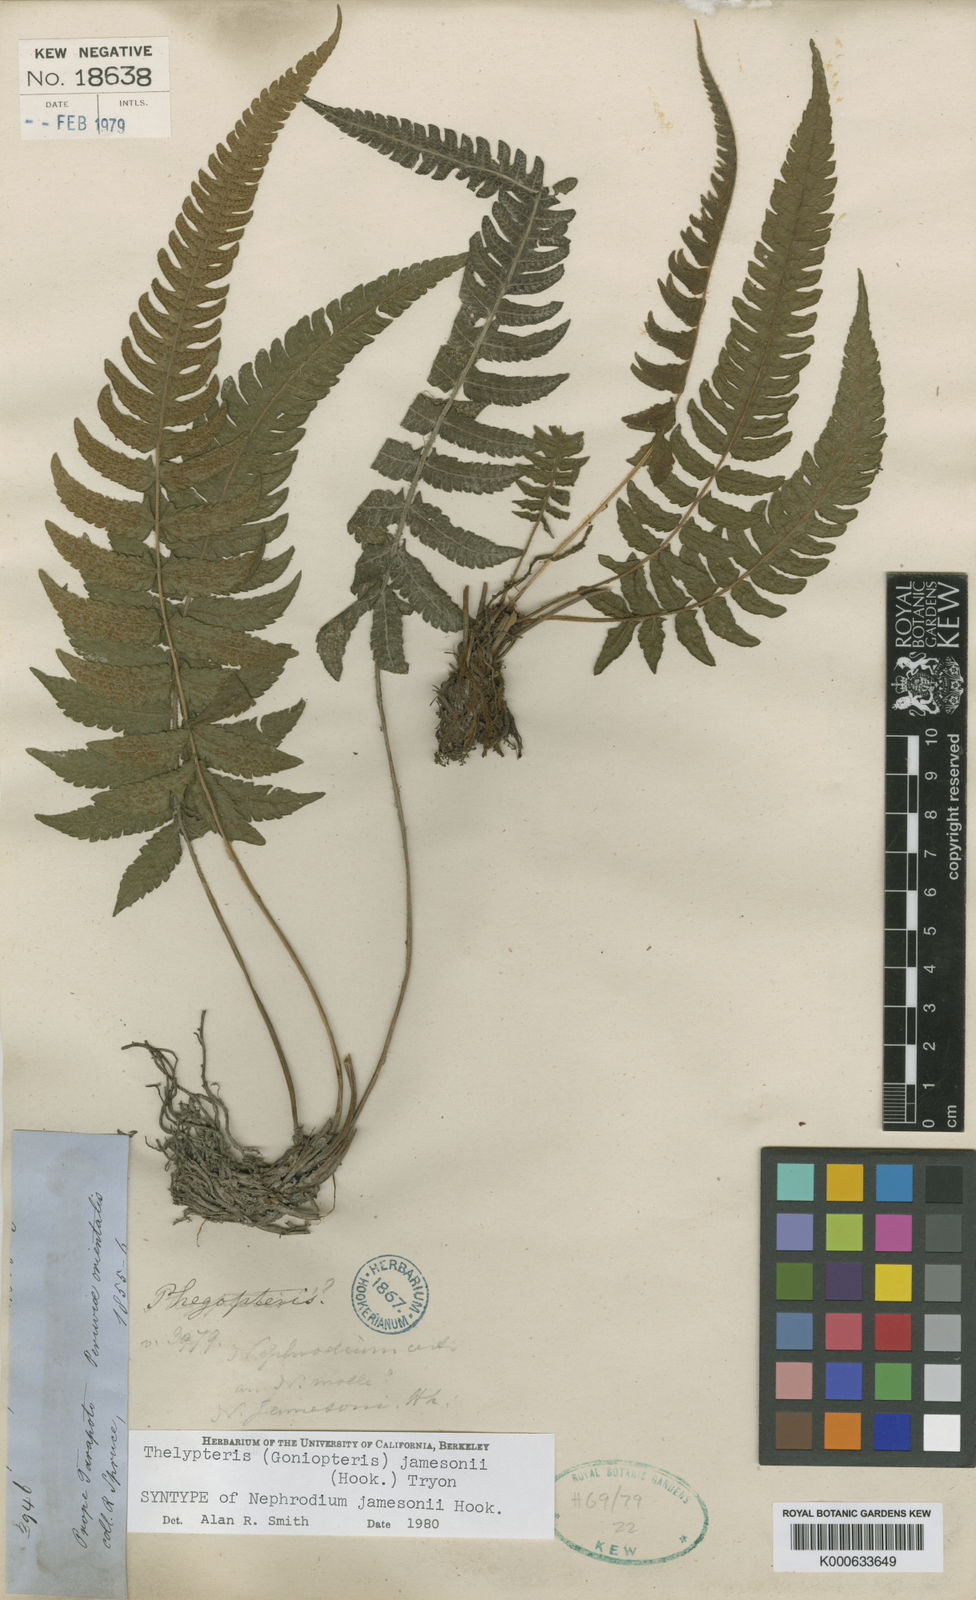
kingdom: Plantae
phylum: Tracheophyta
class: Polypodiopsida
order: Polypodiales
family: Thelypteridaceae
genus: Goniopteris
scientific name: Goniopteris jamesonii
